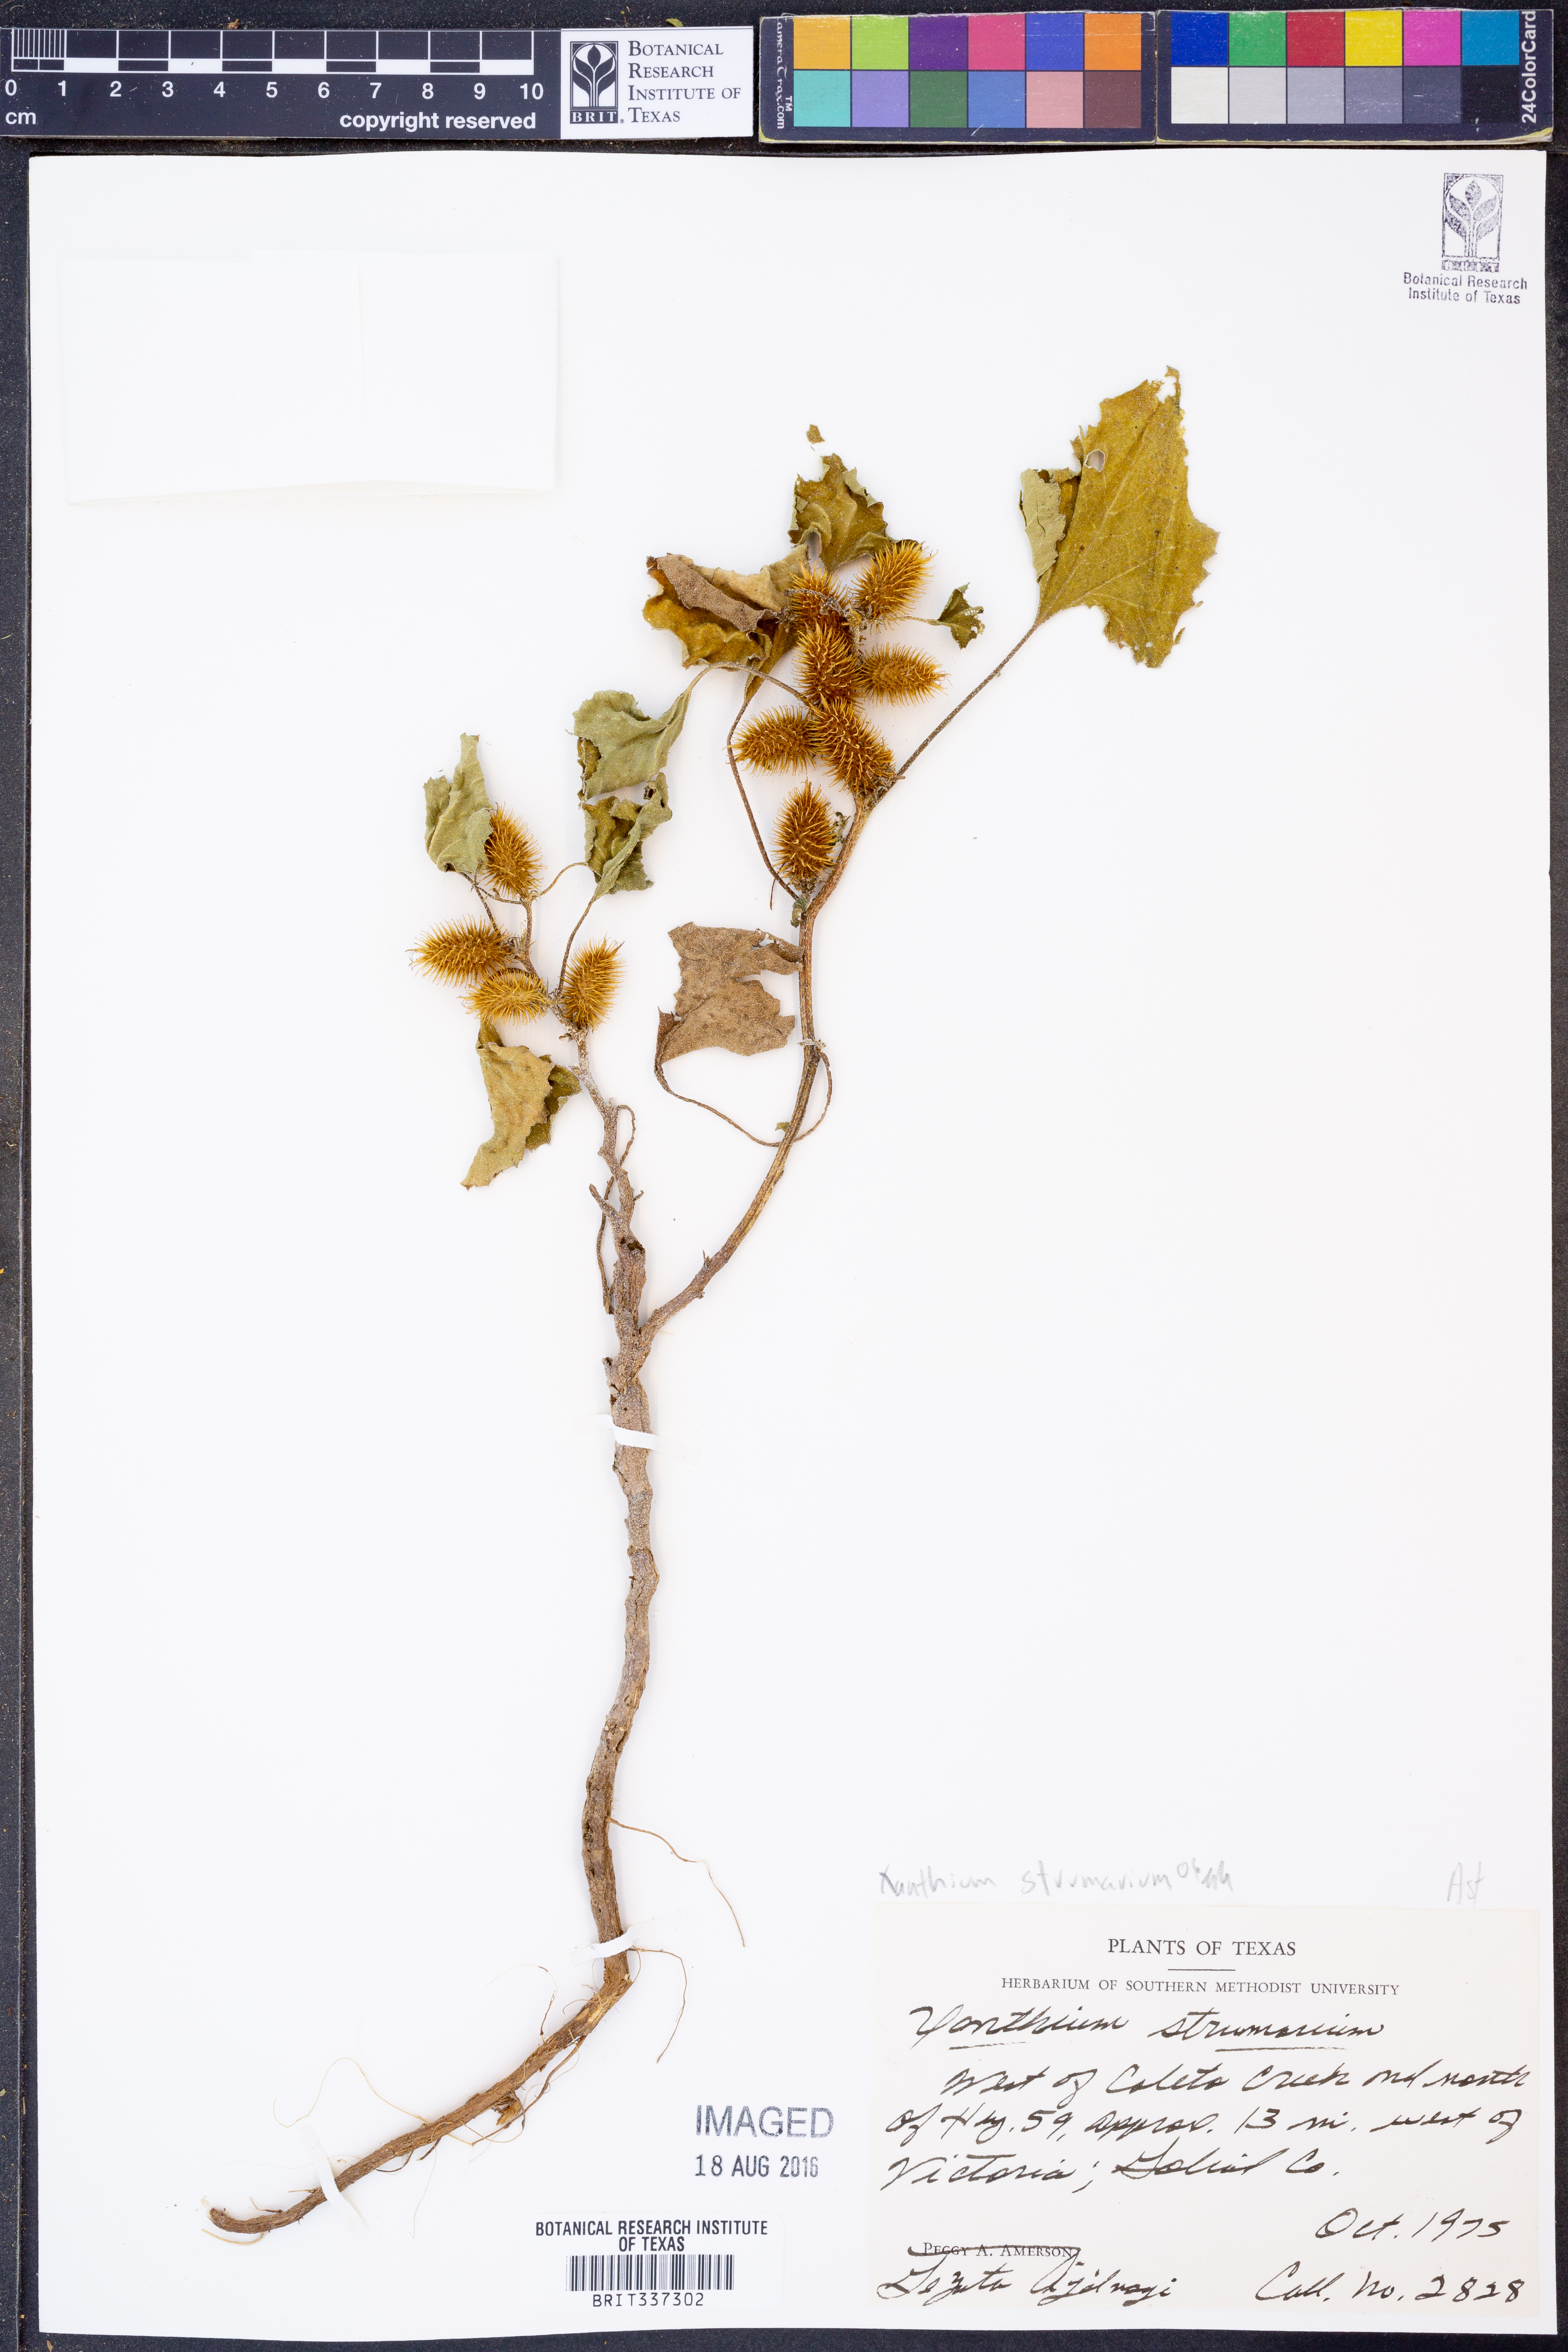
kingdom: Plantae
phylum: Tracheophyta
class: Magnoliopsida
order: Asterales
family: Asteraceae
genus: Xanthium
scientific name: Xanthium strumarium
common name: Rough cocklebur
